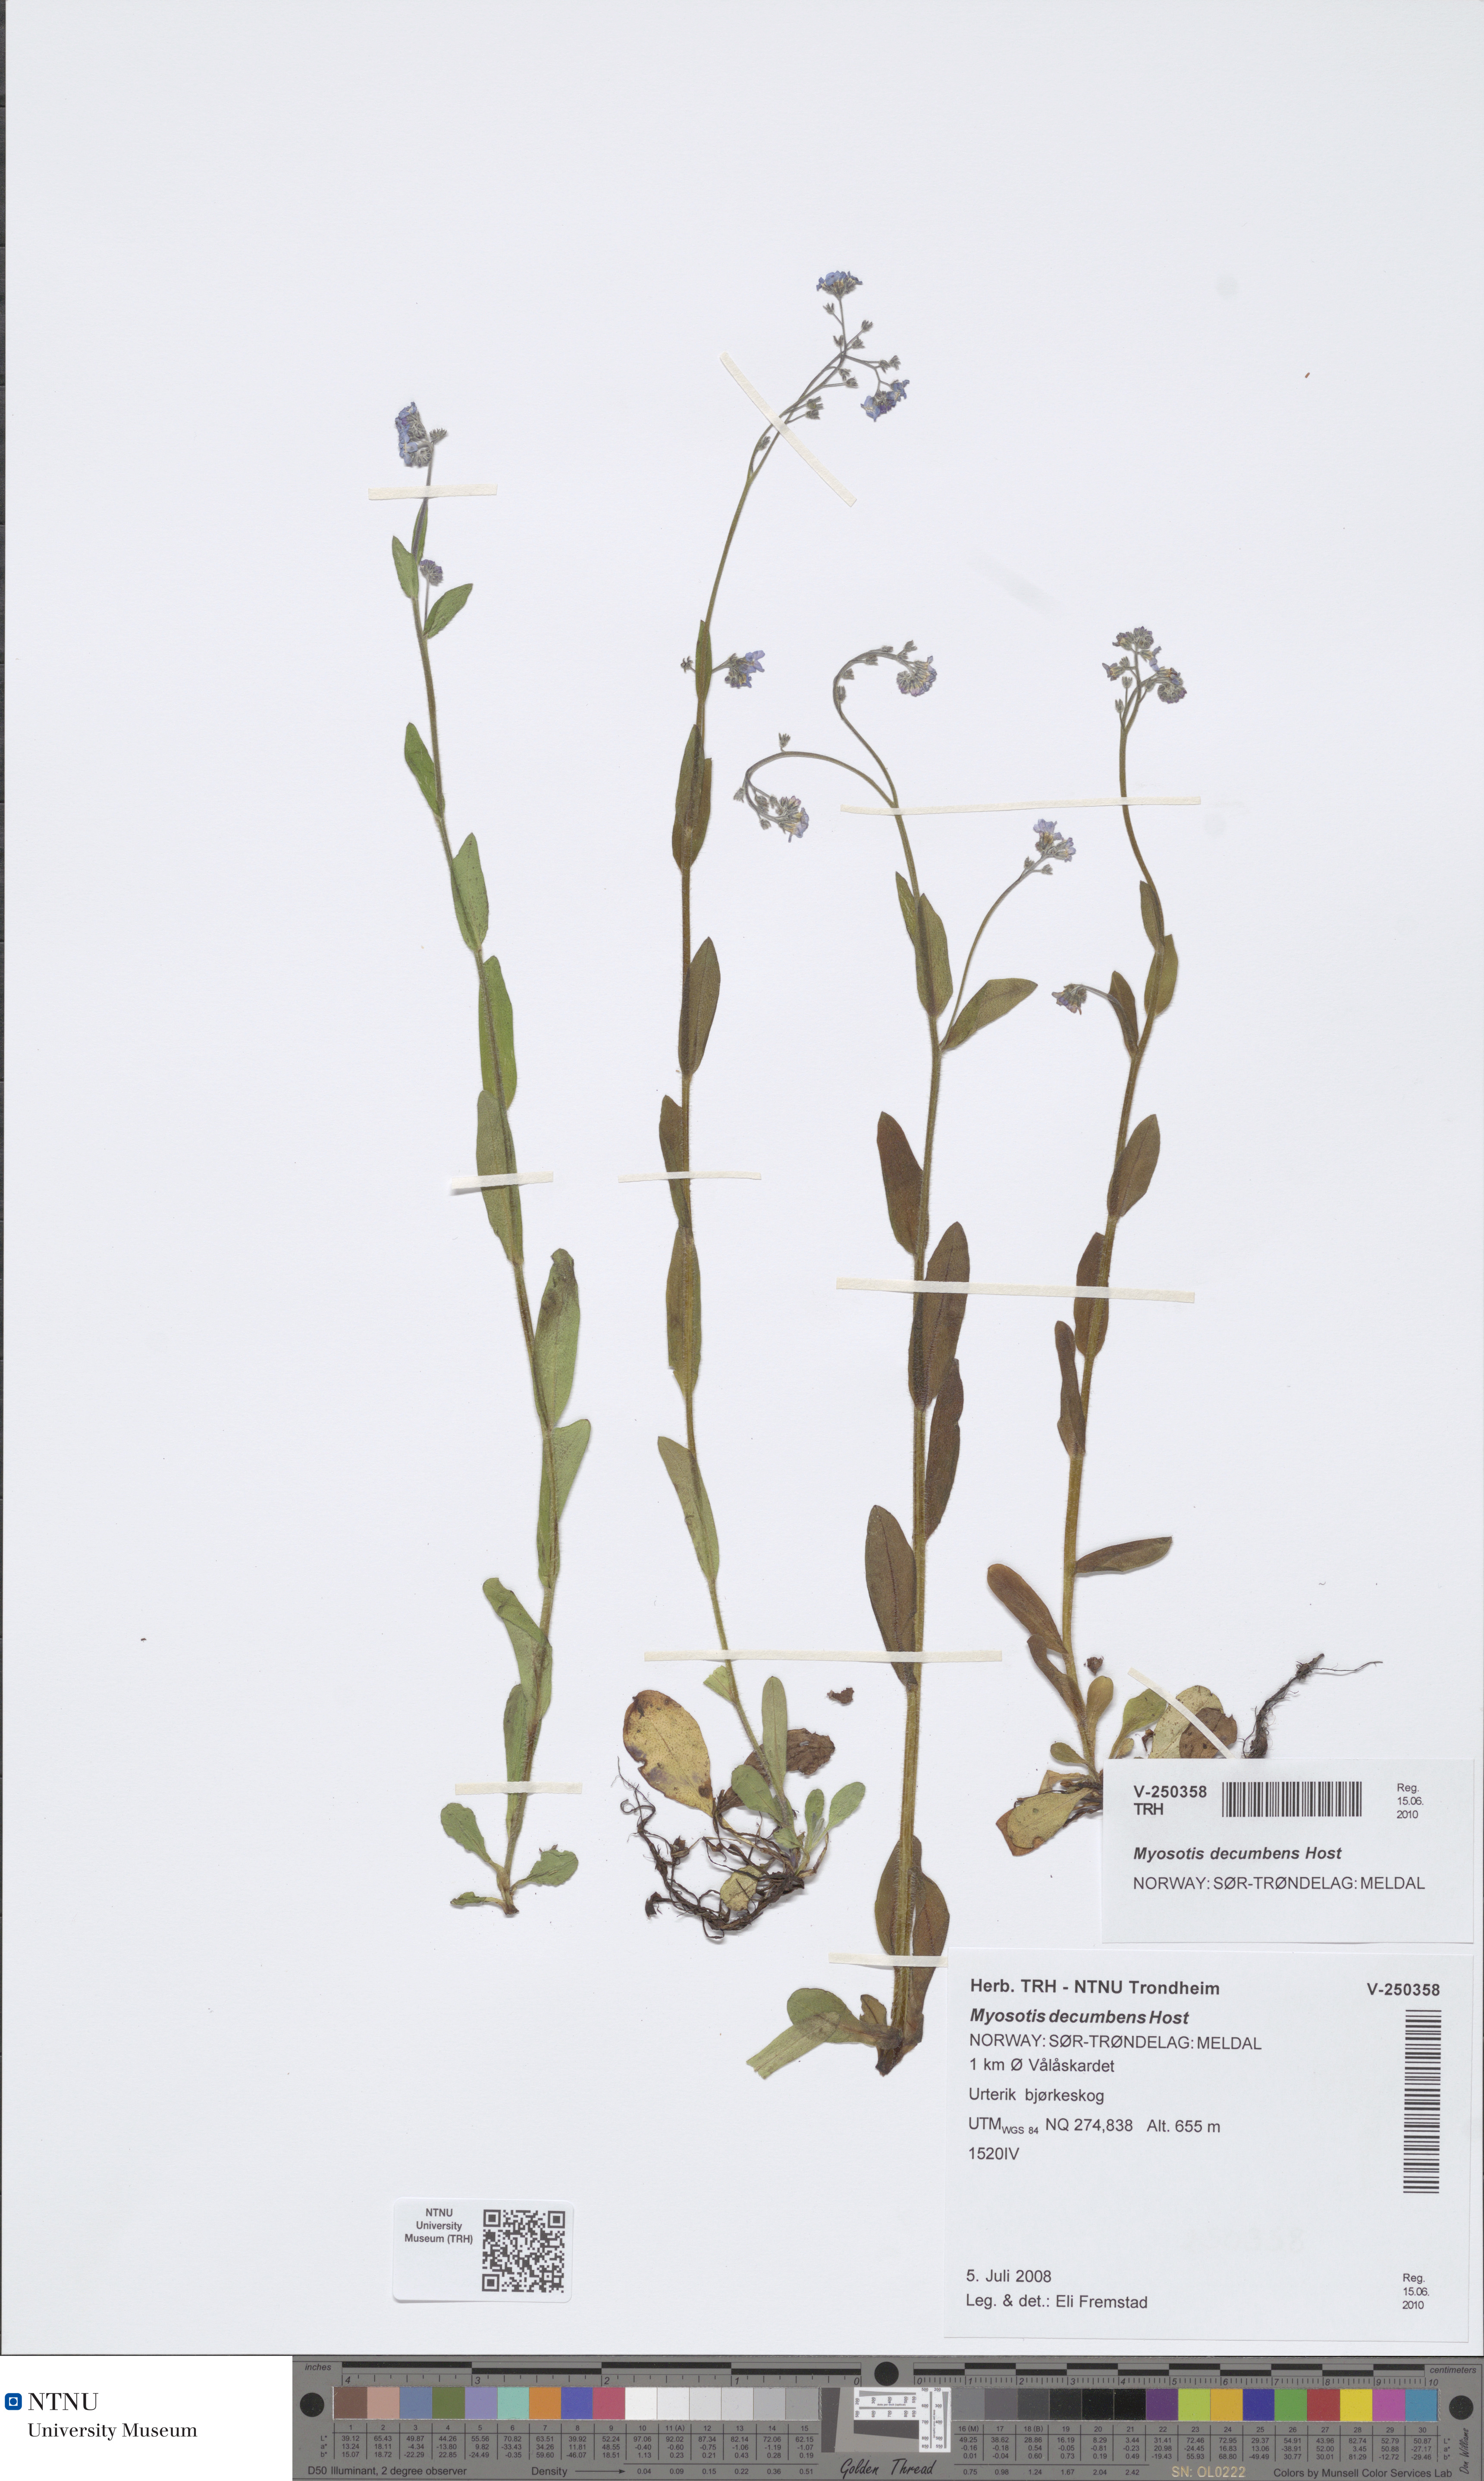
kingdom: Plantae
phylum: Tracheophyta
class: Magnoliopsida
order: Boraginales
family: Boraginaceae
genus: Myosotis
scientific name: Myosotis decumbens
